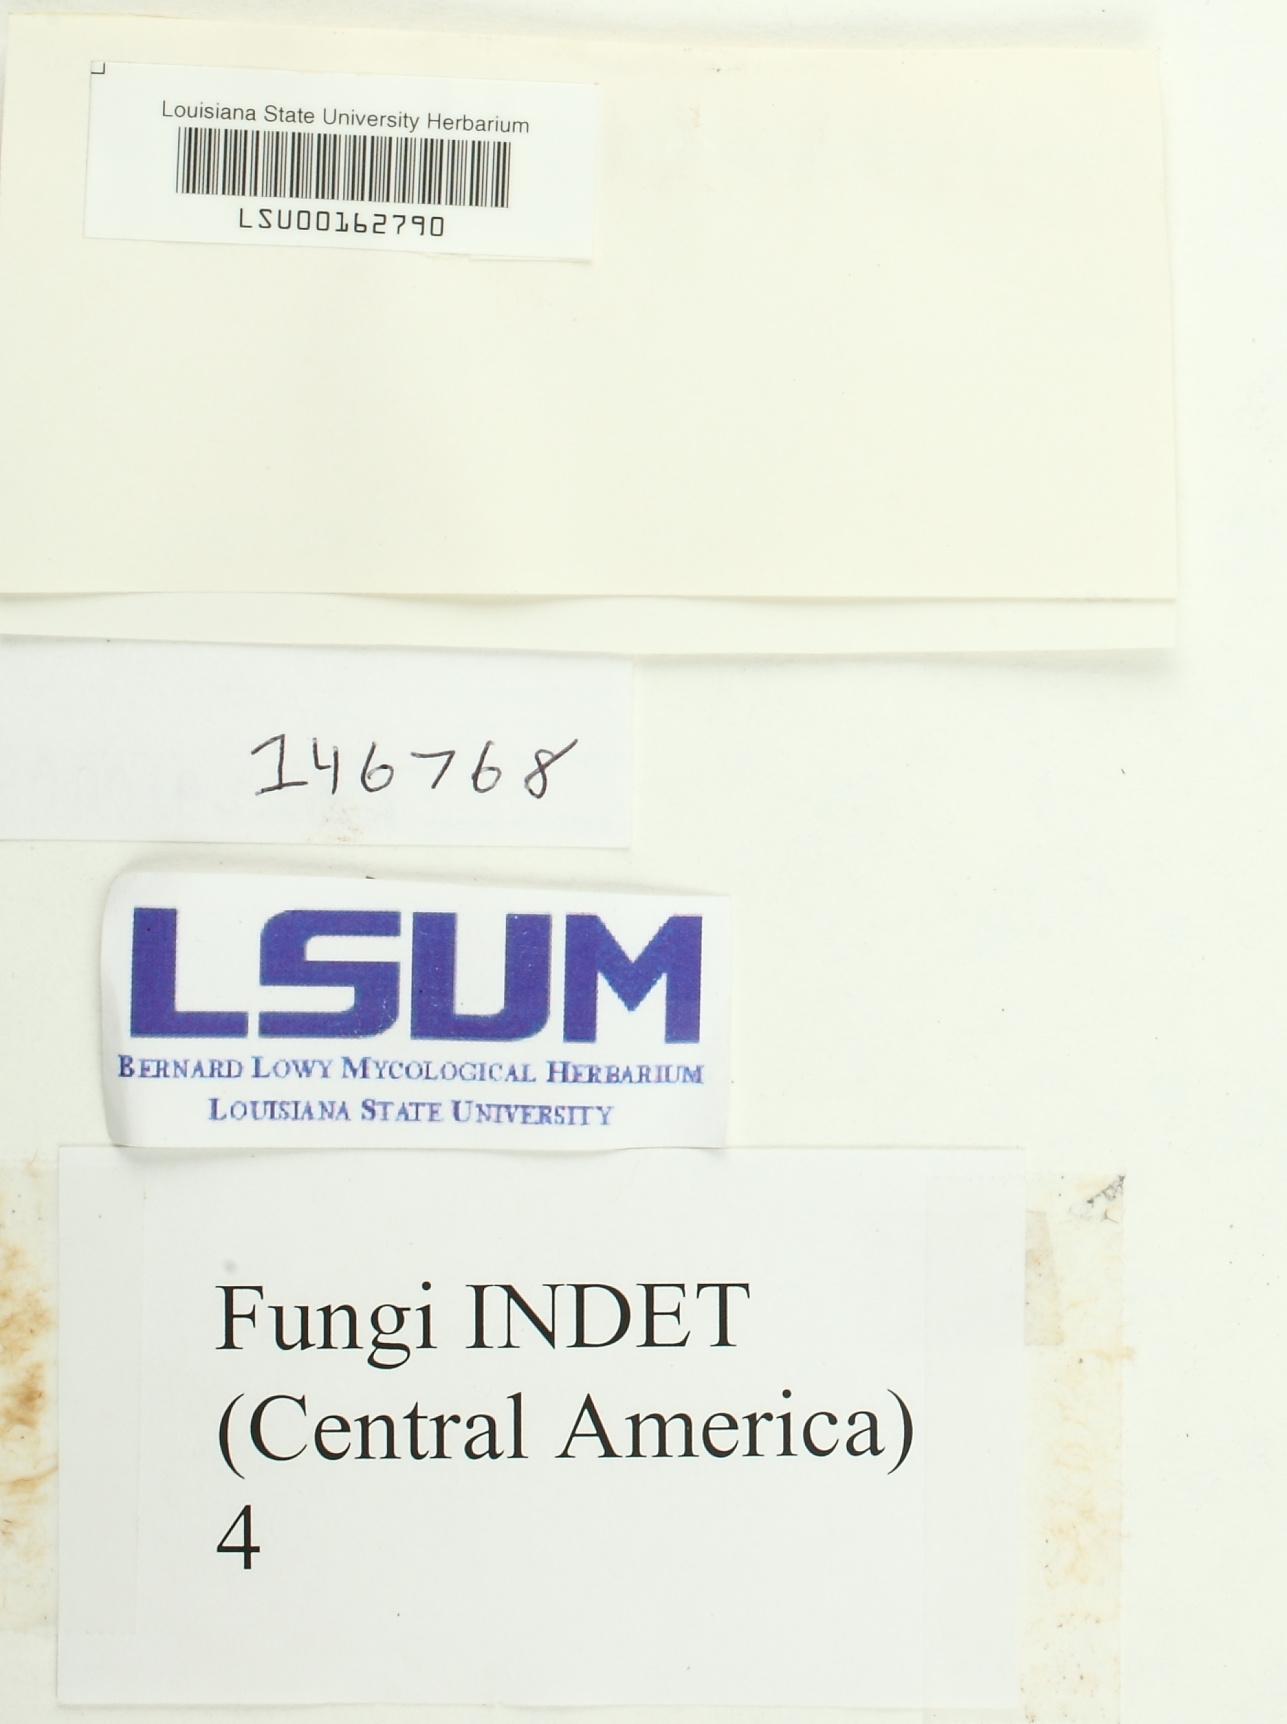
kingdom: Fungi
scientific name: Fungi
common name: Fungi
